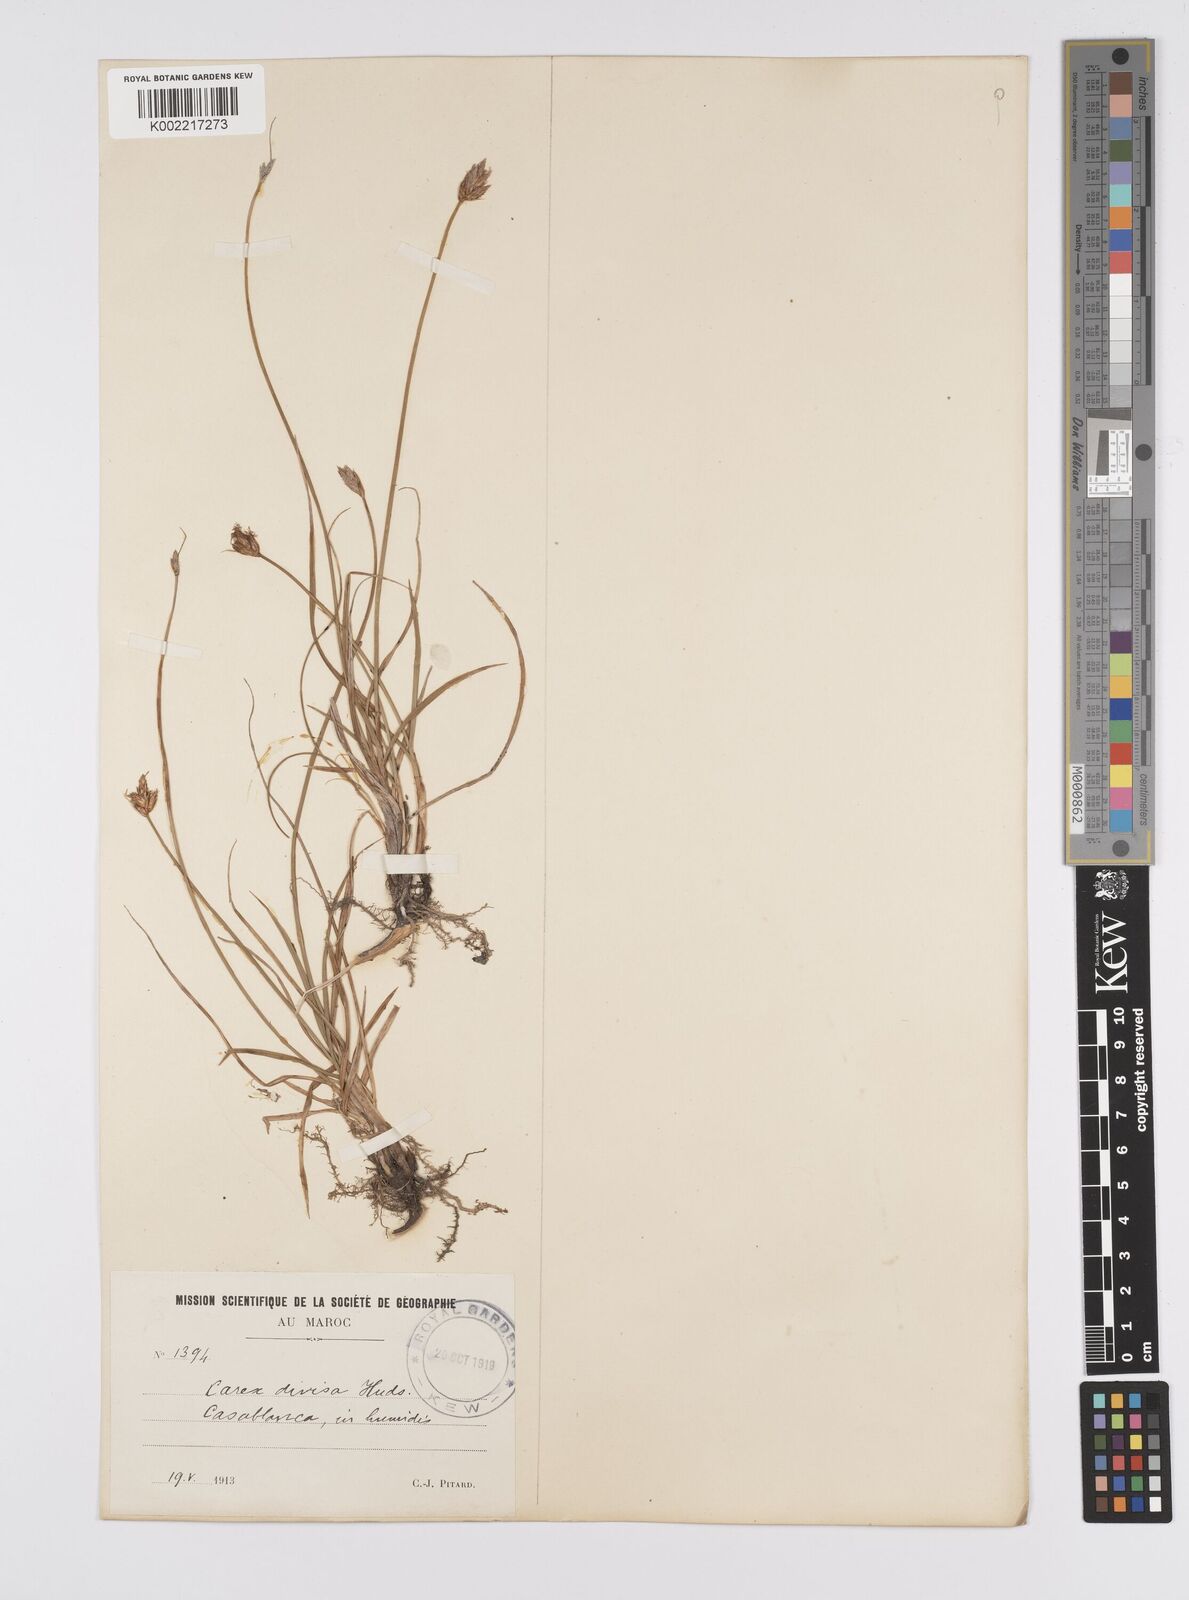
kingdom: Plantae
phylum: Tracheophyta
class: Liliopsida
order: Poales
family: Cyperaceae
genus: Carex
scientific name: Carex divisa
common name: Divided sedge
